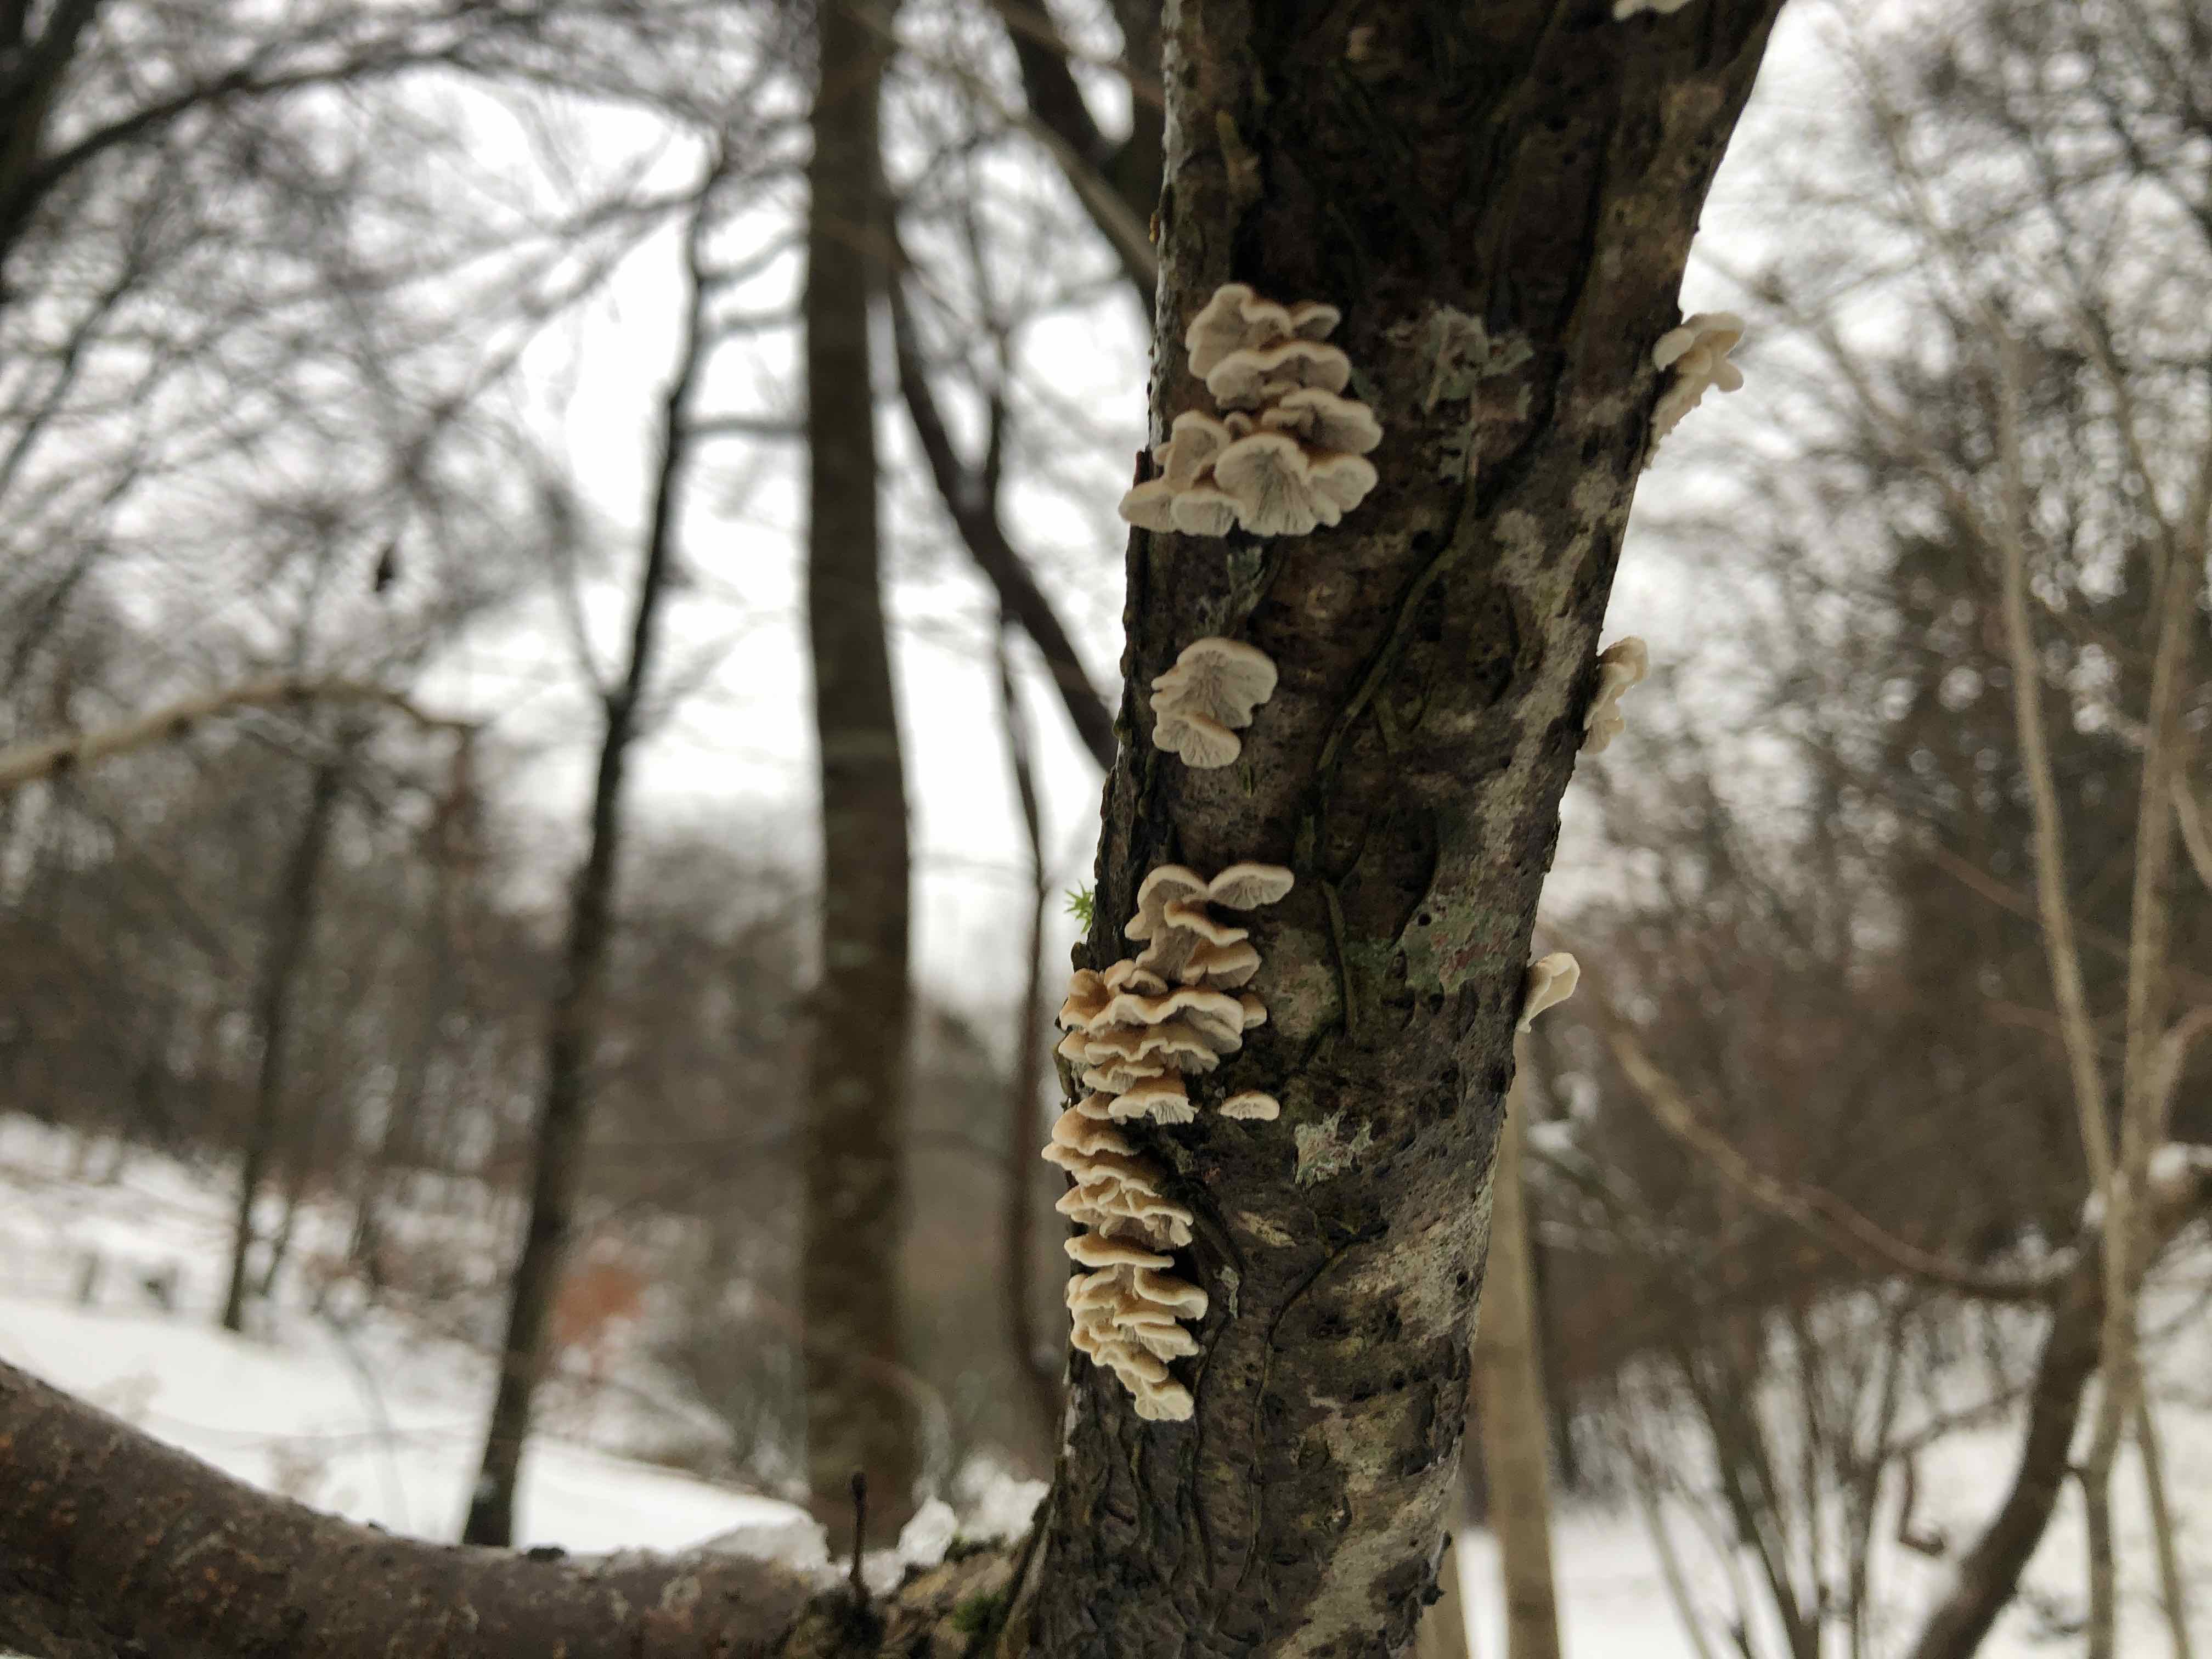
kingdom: Fungi
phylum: Basidiomycota
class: Agaricomycetes
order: Amylocorticiales
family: Amylocorticiaceae
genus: Plicaturopsis
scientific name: Plicaturopsis crispa
